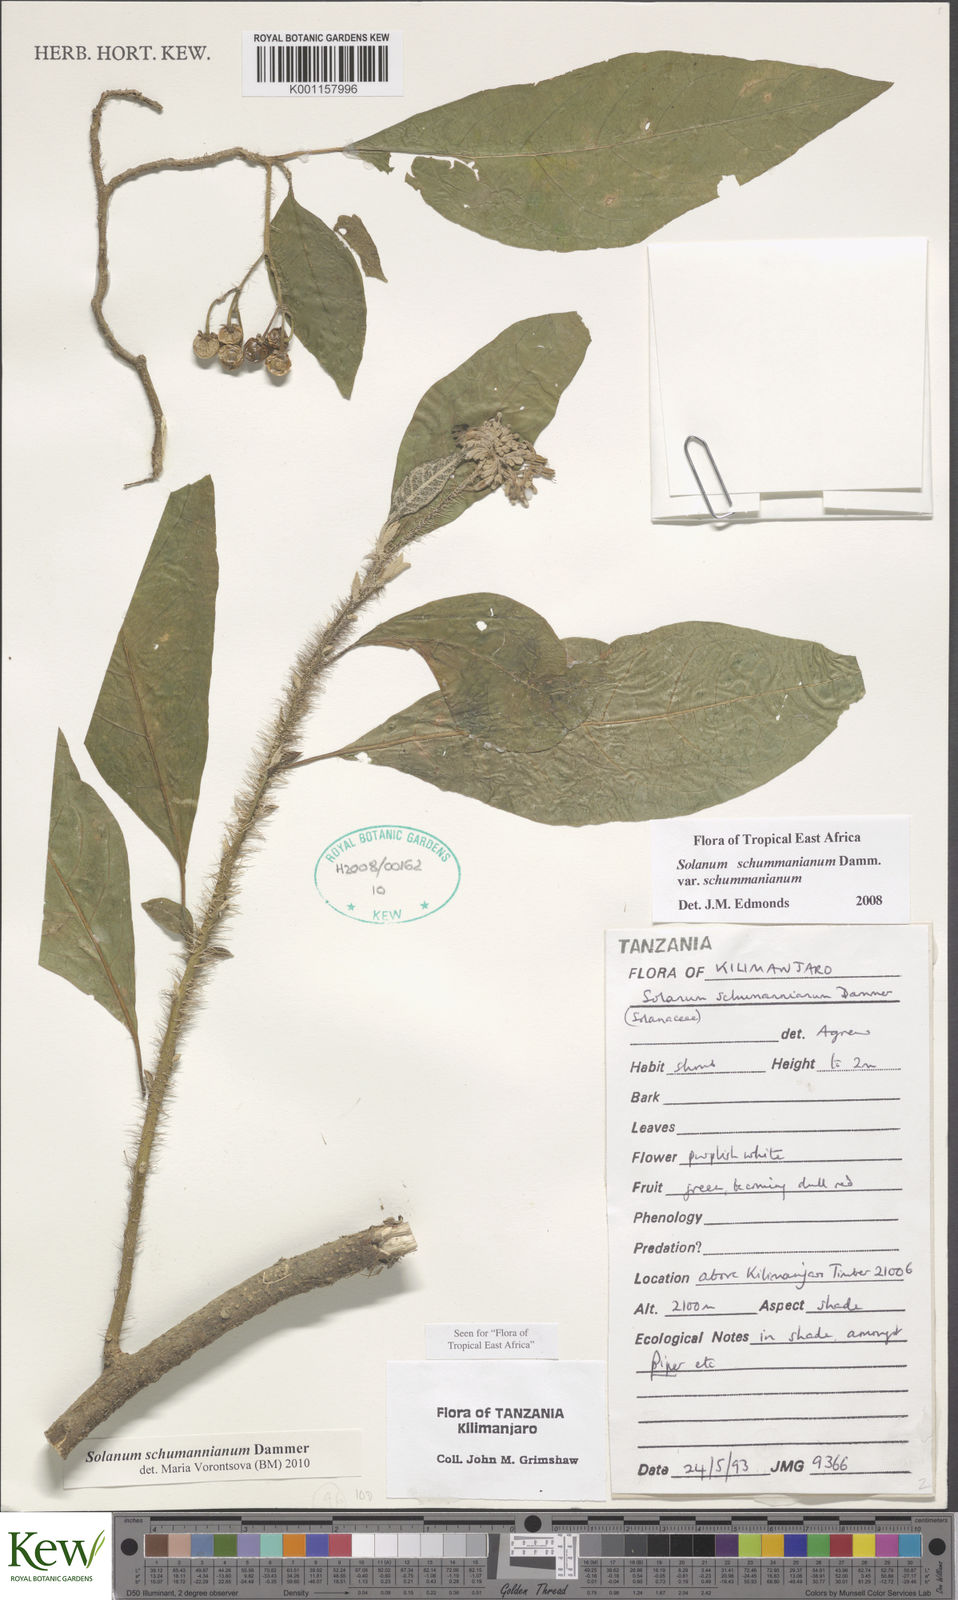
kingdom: Plantae
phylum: Tracheophyta
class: Magnoliopsida
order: Solanales
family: Solanaceae
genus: Solanum
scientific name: Solanum schumannianum
